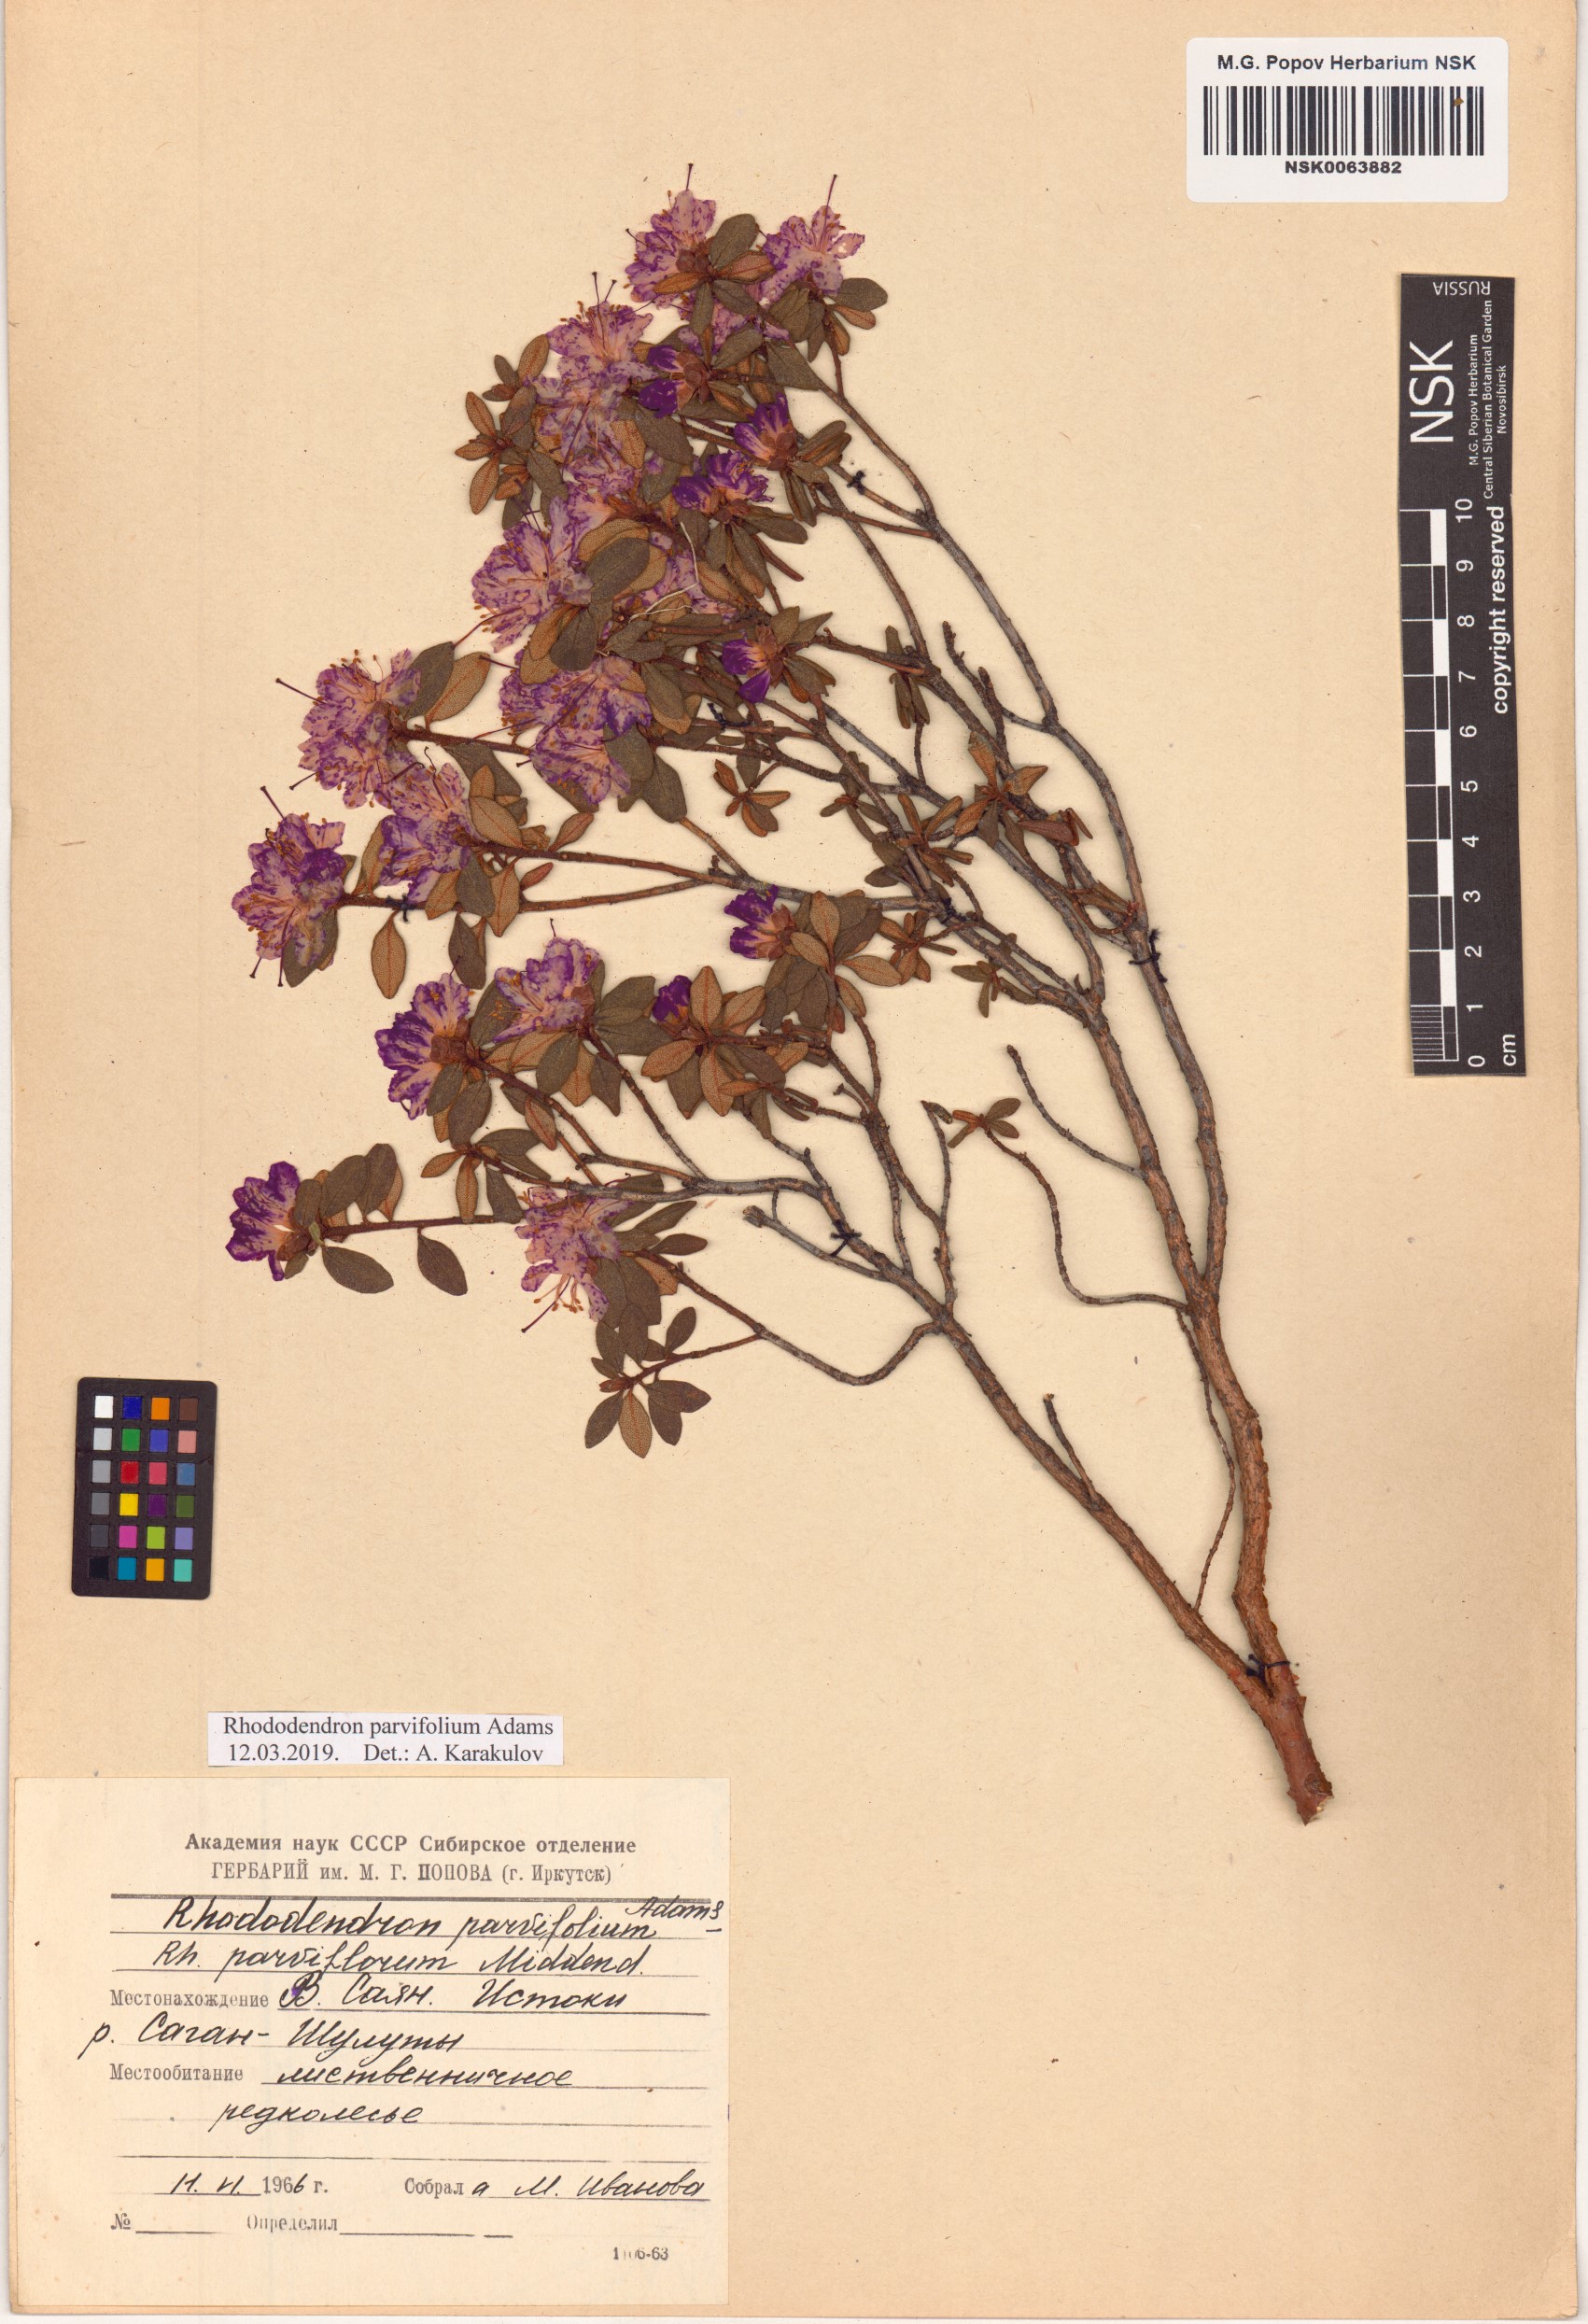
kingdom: Plantae
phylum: Tracheophyta
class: Magnoliopsida
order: Ericales
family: Ericaceae
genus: Rhododendron
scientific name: Rhododendron parvifolium
